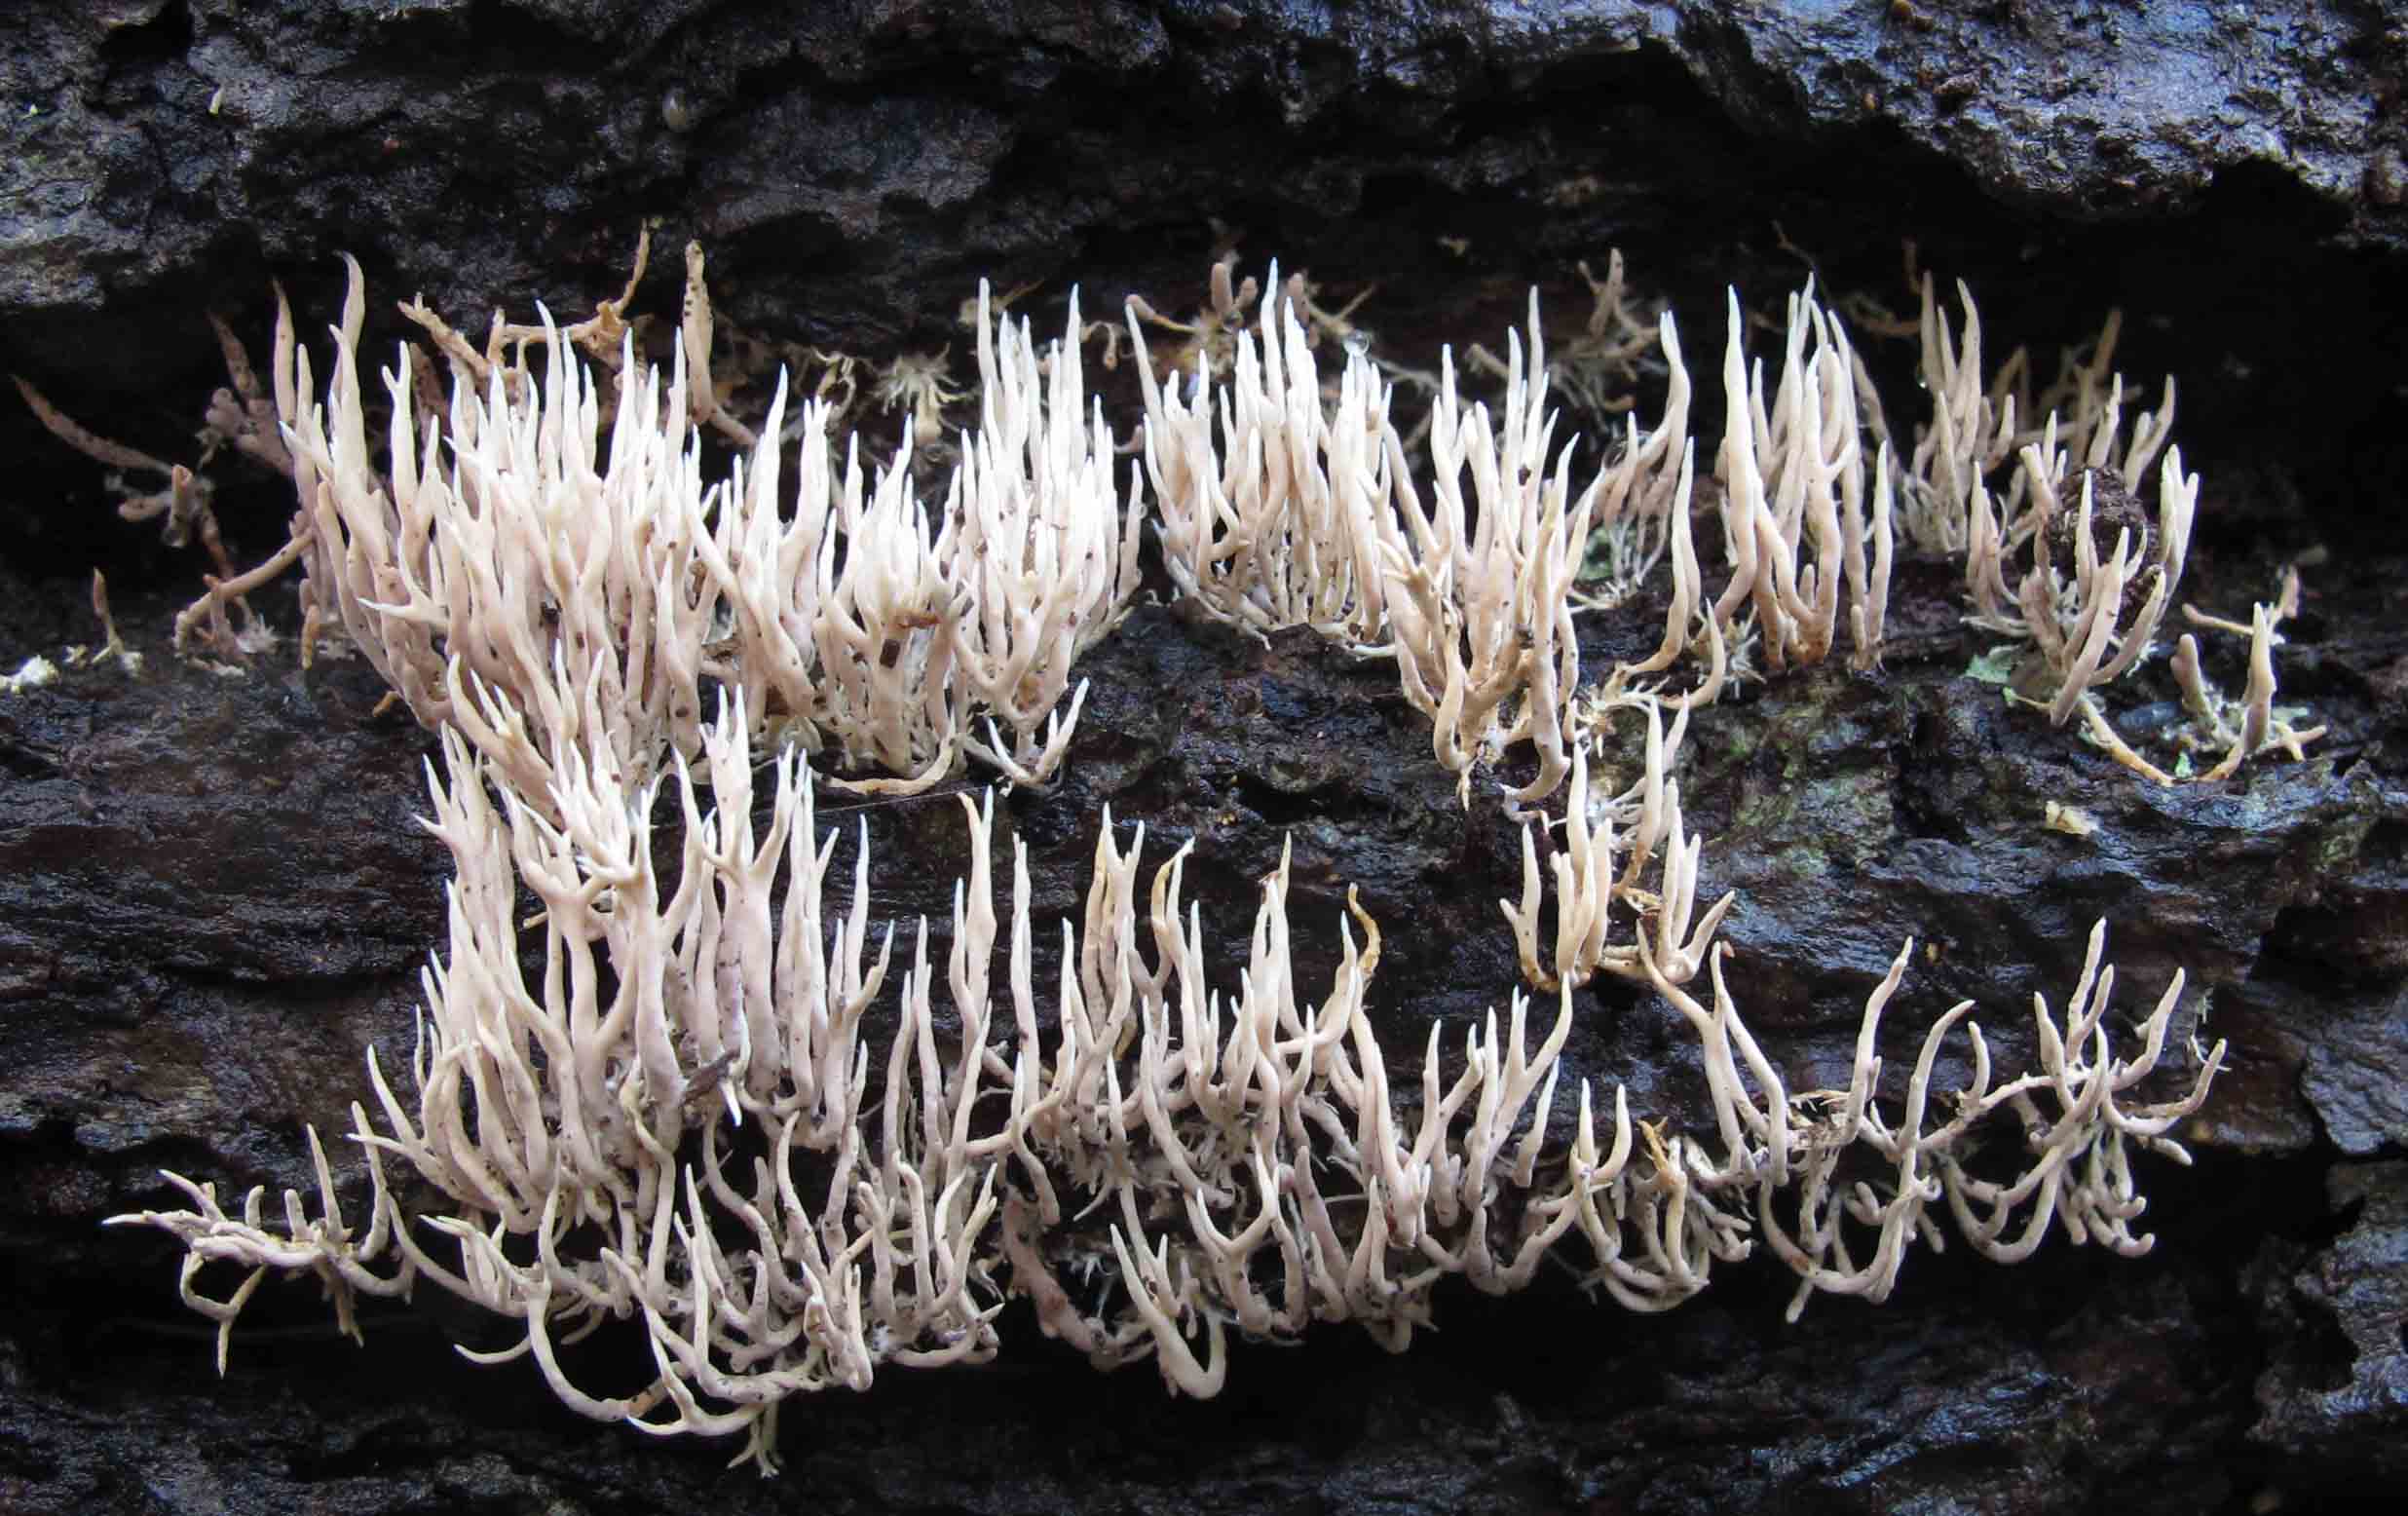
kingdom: Fungi
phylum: Basidiomycota
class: Agaricomycetes
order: Gomphales
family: Lentariaceae
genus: Lentaria
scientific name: Lentaria byssiseda
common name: kødfarvet grenkølle
